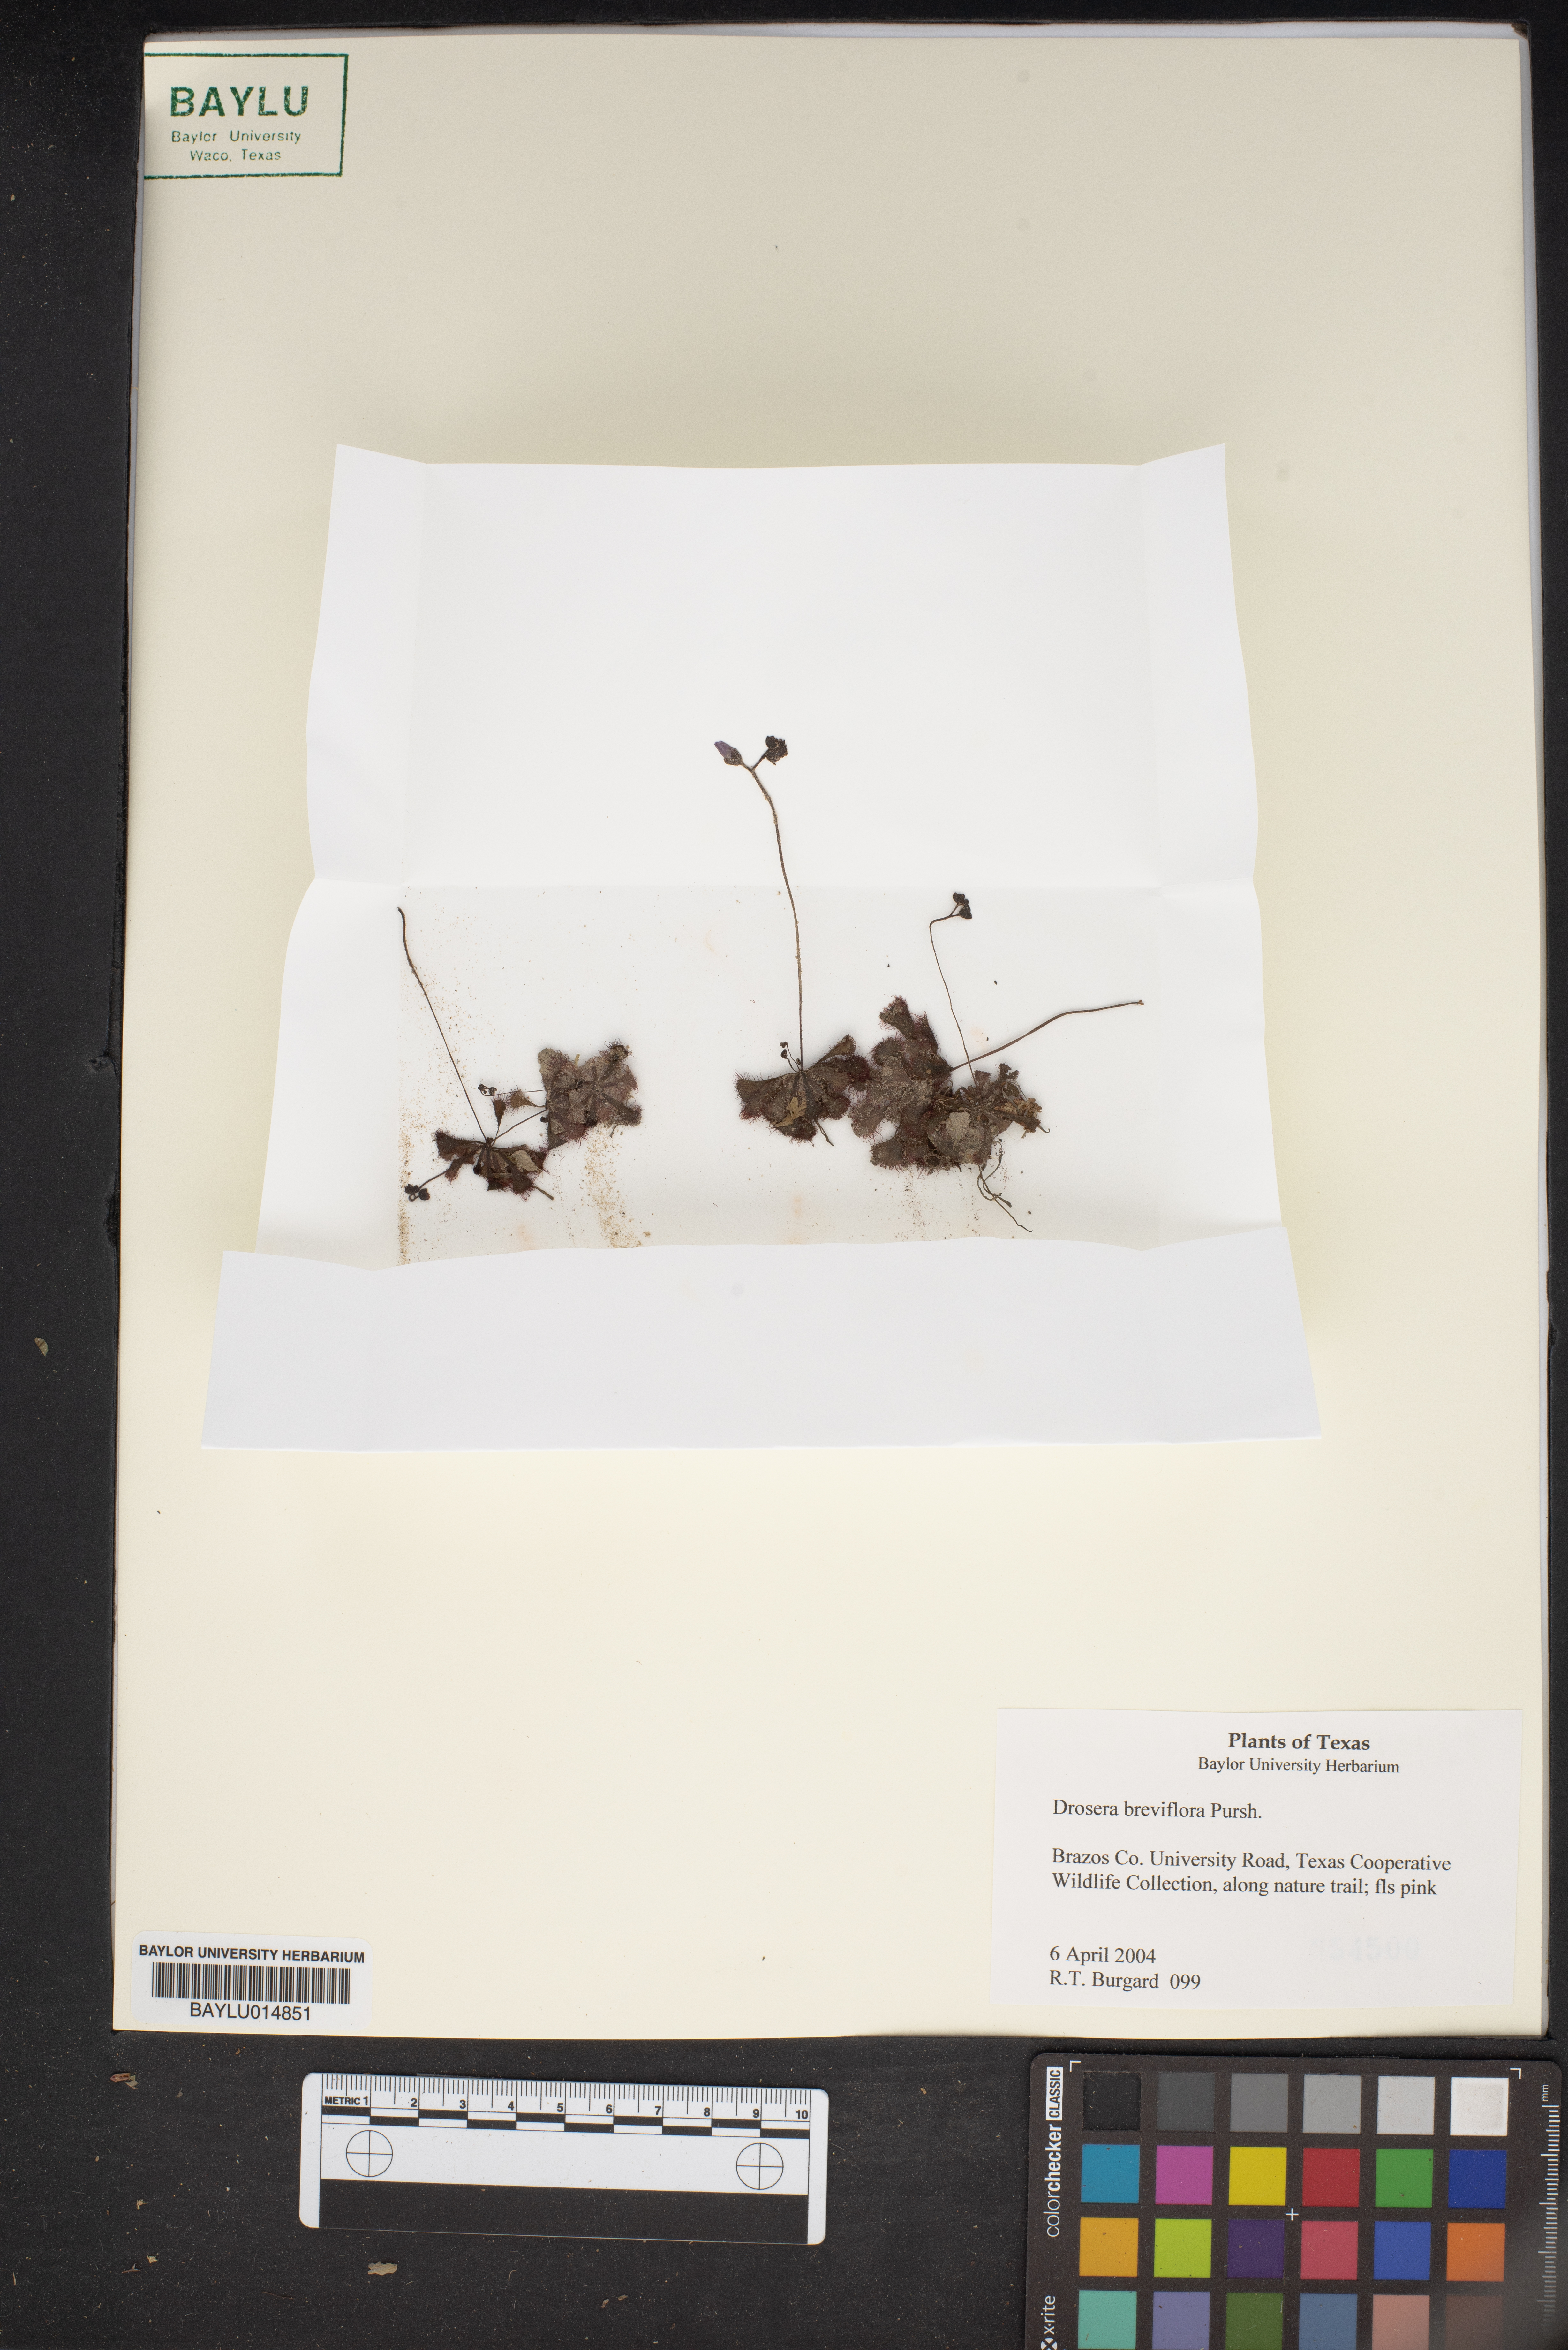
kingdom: Plantae
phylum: Tracheophyta
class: Magnoliopsida
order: Caryophyllales
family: Droseraceae
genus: Drosera
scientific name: Drosera brevifolia
